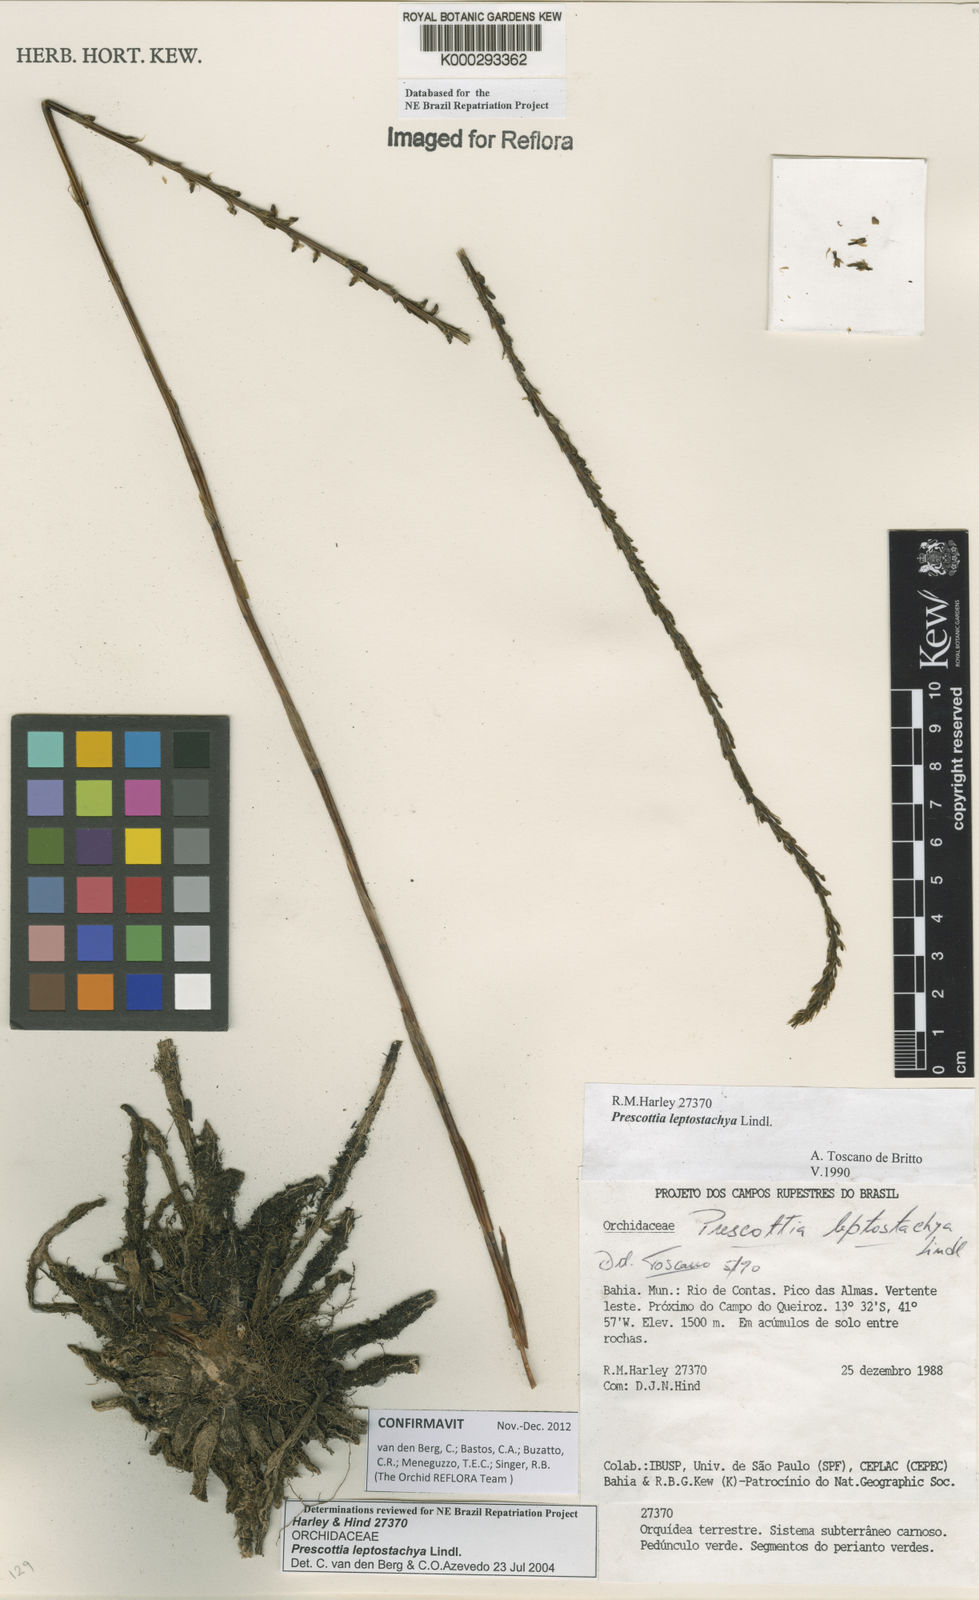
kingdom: Plantae
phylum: Tracheophyta
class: Liliopsida
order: Asparagales
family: Orchidaceae
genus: Prescottia
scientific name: Prescottia leptostachya
